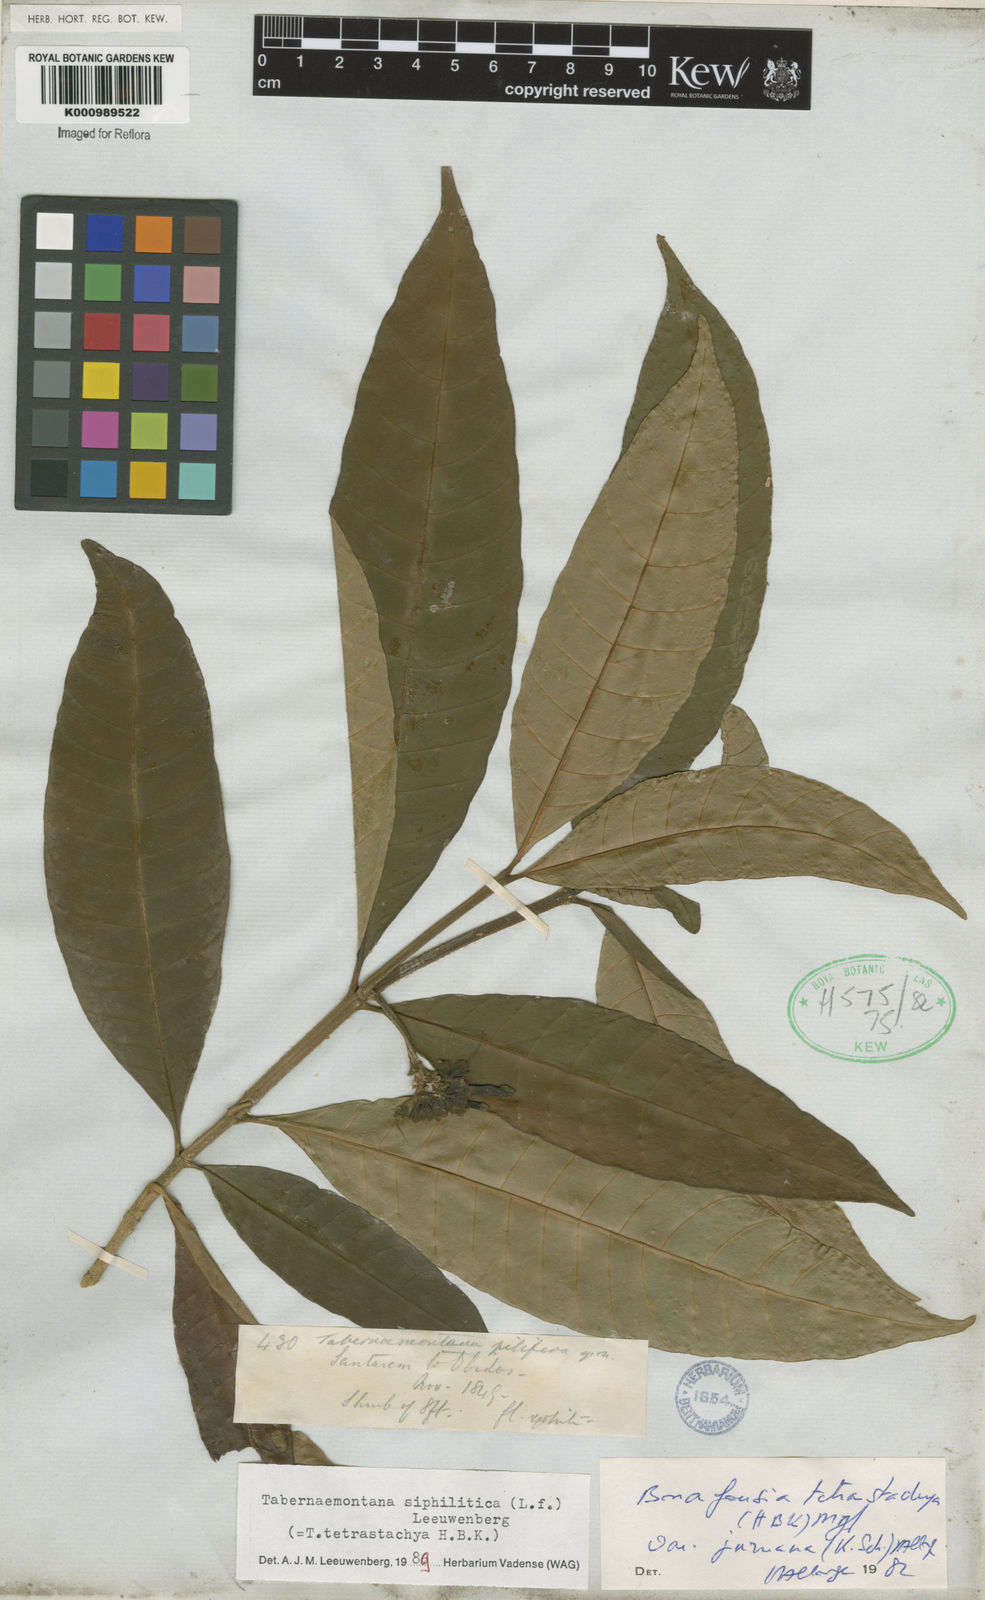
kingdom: Plantae
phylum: Tracheophyta
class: Magnoliopsida
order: Gentianales
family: Apocynaceae
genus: Tabernaemontana
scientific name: Tabernaemontana siphilitica
